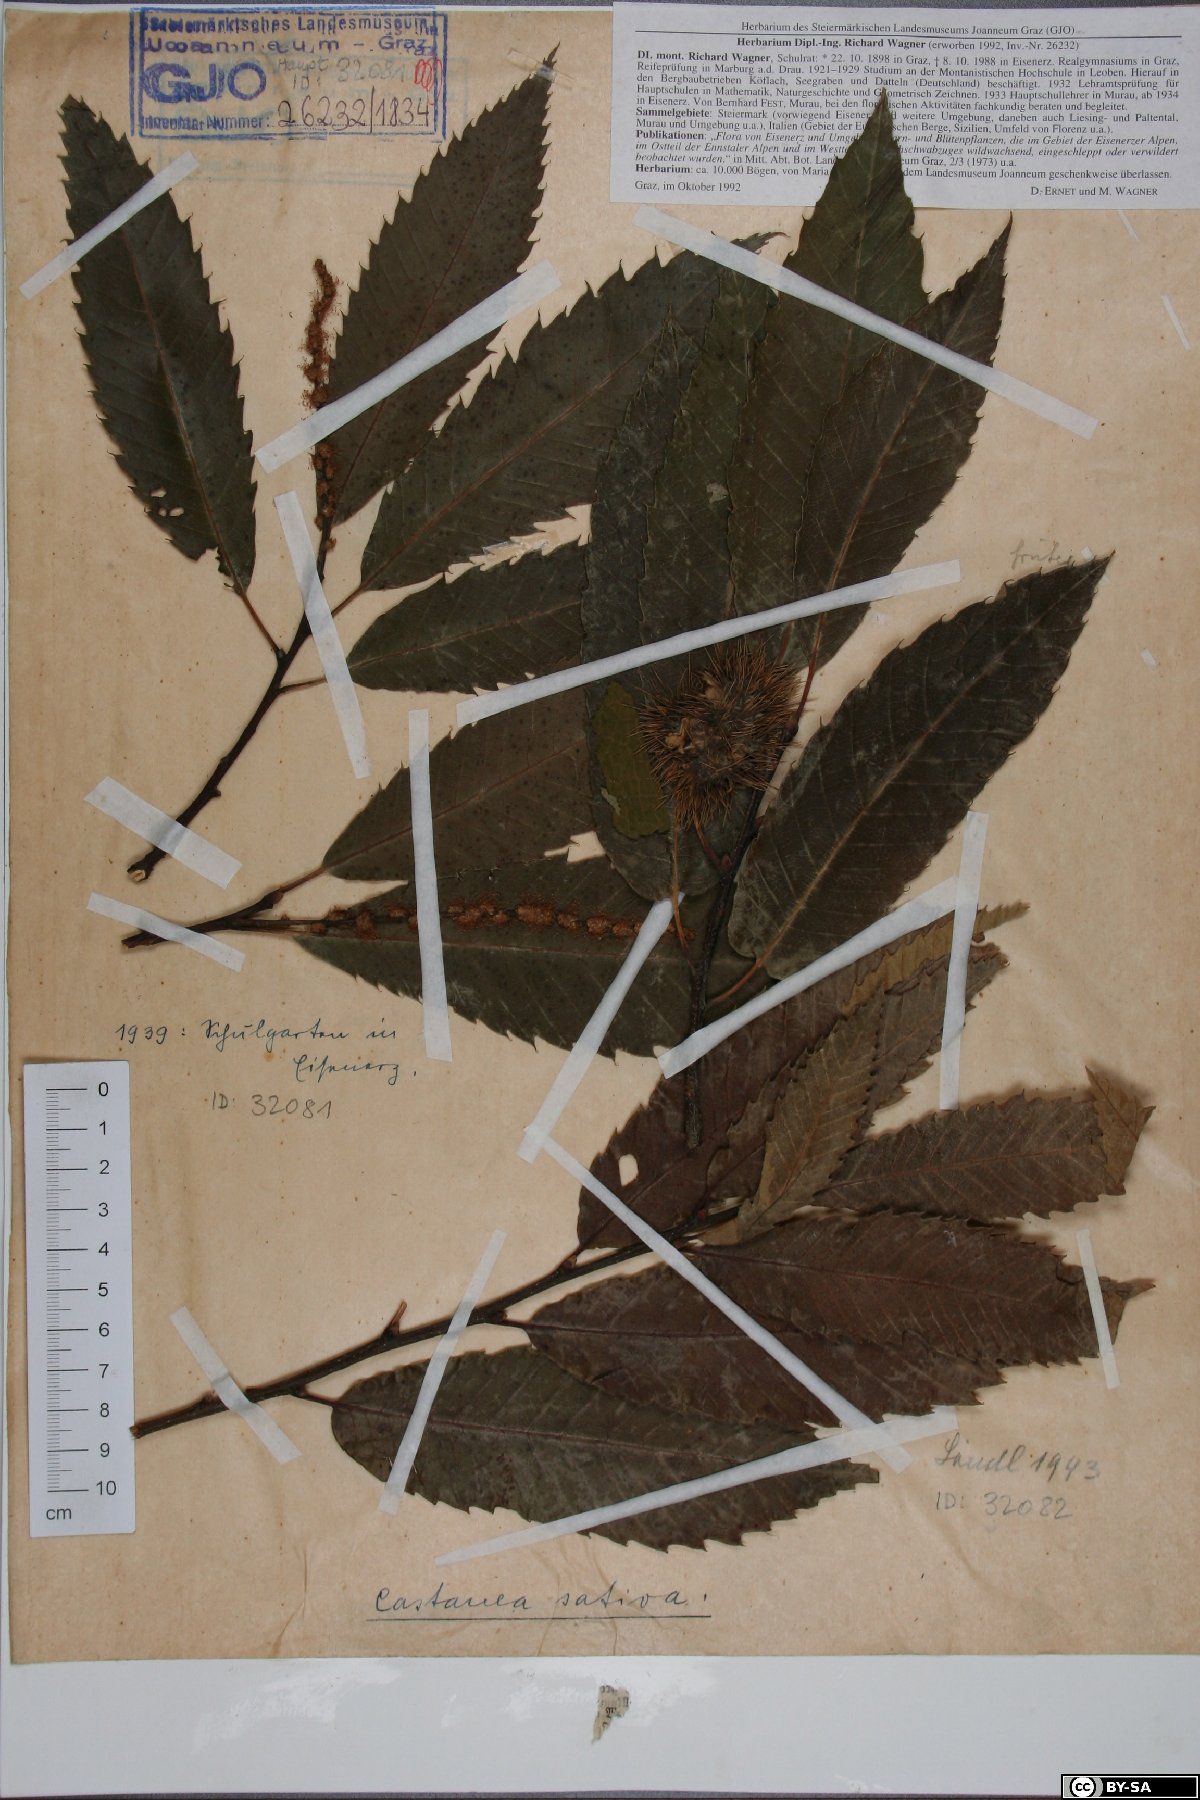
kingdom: Plantae
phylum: Tracheophyta
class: Magnoliopsida
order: Fagales
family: Fagaceae
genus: Castanea
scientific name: Castanea sativa
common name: Sweet chestnut
